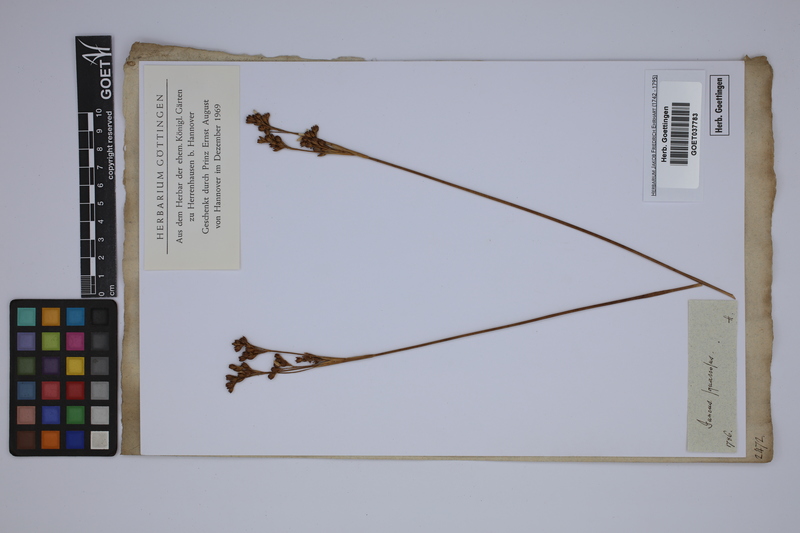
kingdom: Plantae
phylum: Tracheophyta
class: Liliopsida
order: Poales
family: Juncaceae
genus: Juncus
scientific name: Juncus squarrosus
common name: Heath rush
